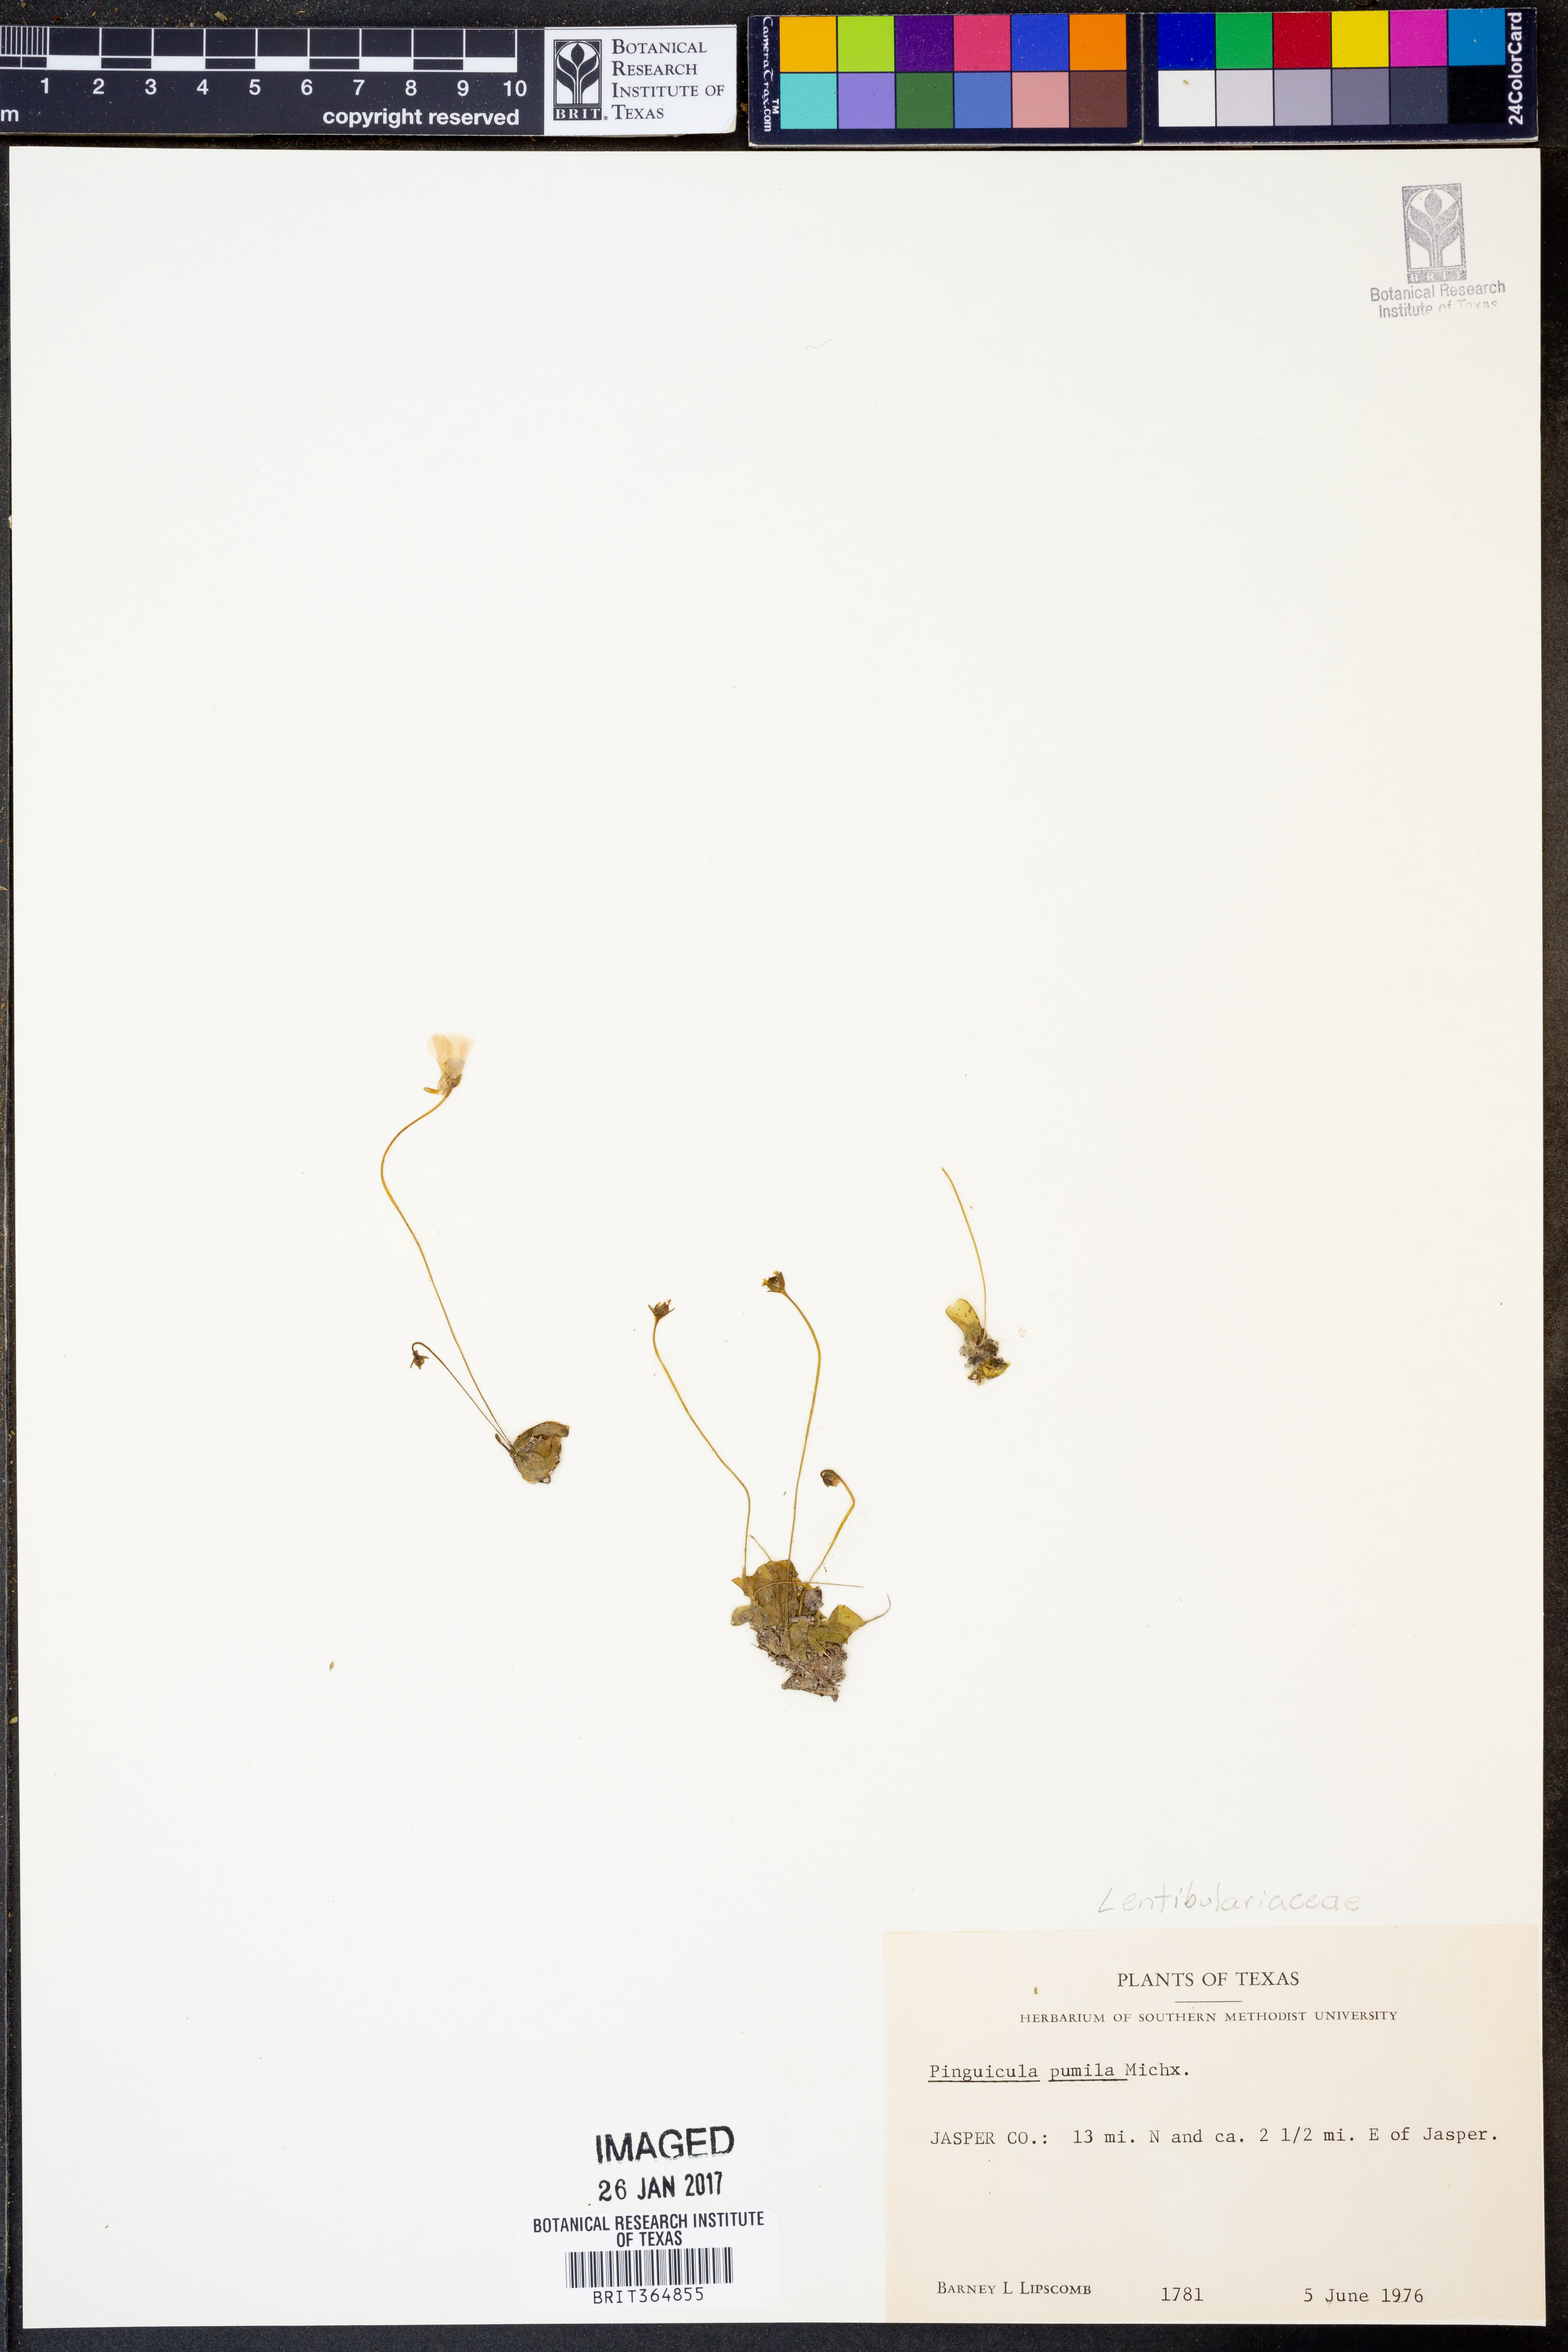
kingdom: Plantae
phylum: Tracheophyta
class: Magnoliopsida
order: Lamiales
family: Lentibulariaceae
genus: Pinguicula
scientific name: Pinguicula pumila
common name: Small butterwort
